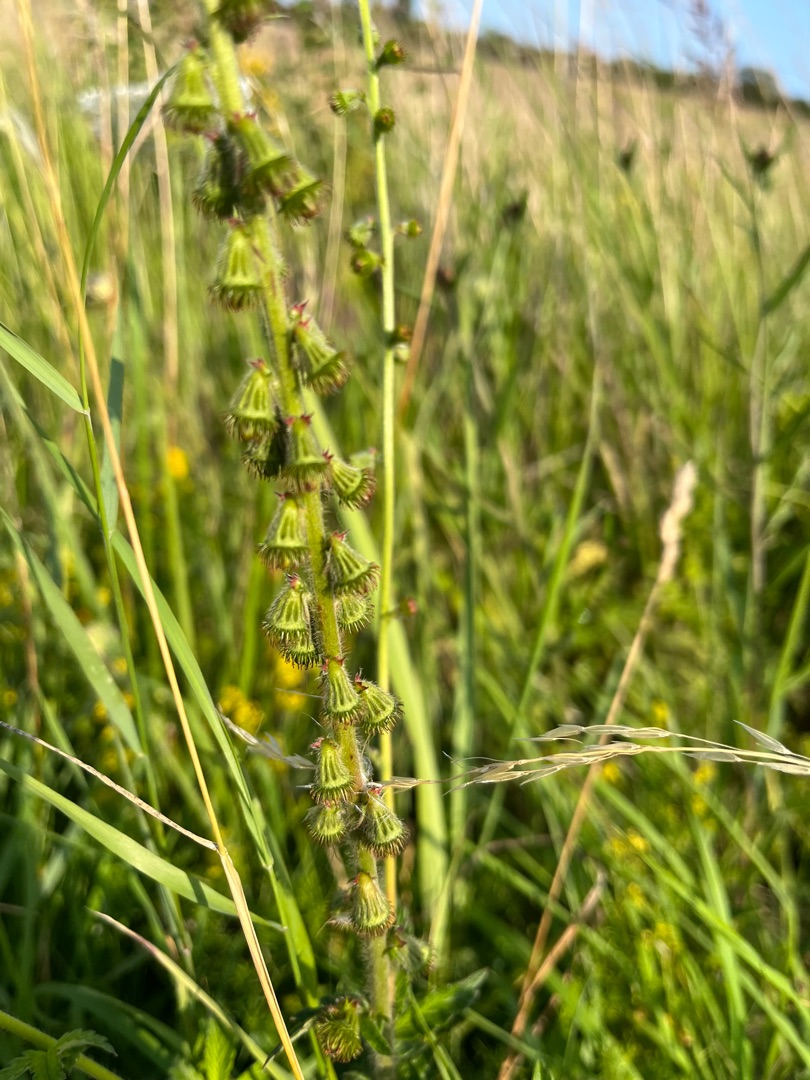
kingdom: Plantae
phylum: Tracheophyta
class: Magnoliopsida
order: Rosales
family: Rosaceae
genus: Agrimonia
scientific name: Agrimonia eupatoria
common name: Almindelig agermåne
